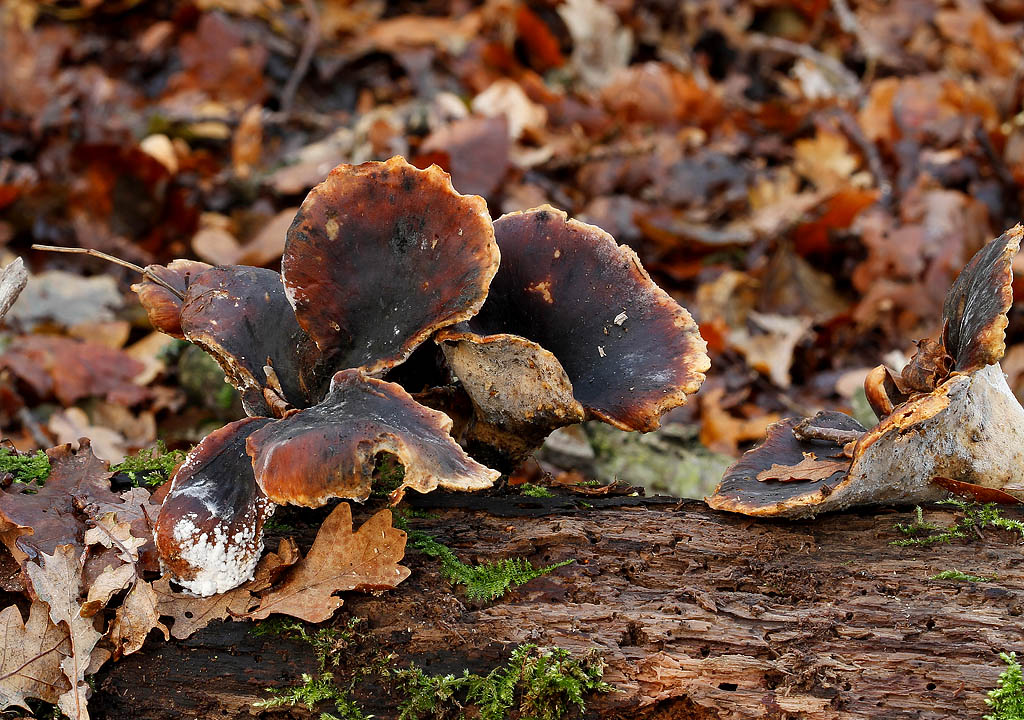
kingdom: Fungi
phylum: Basidiomycota
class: Agaricomycetes
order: Polyporales
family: Polyporaceae
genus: Picipes
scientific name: Picipes badius
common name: kastaniebrun stilkporesvamp
